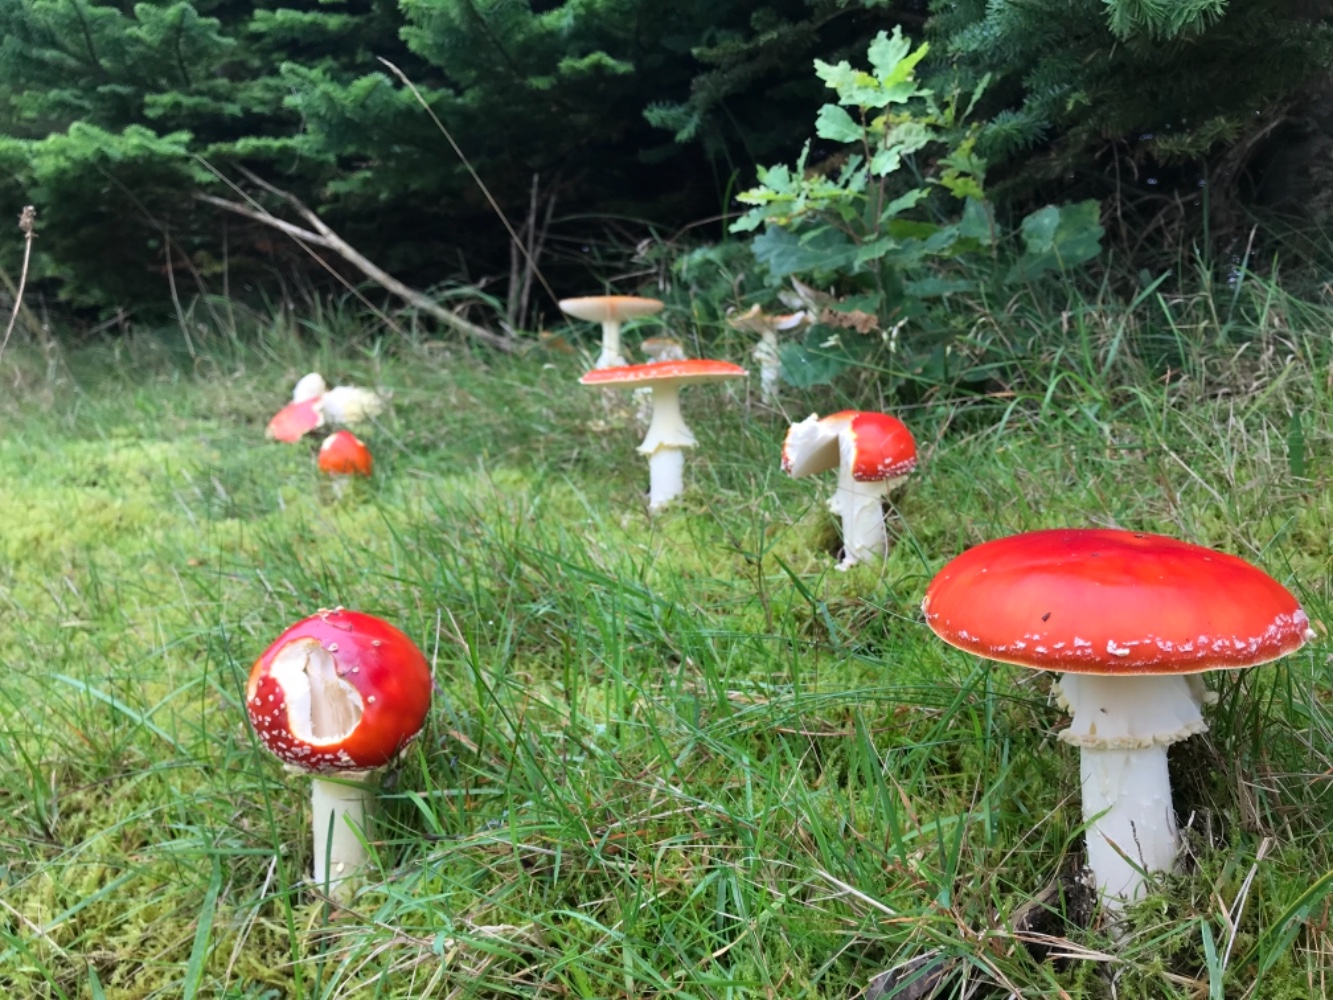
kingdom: Fungi
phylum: Basidiomycota
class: Agaricomycetes
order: Agaricales
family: Amanitaceae
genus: Amanita
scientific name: Amanita muscaria
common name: rød fluesvamp
